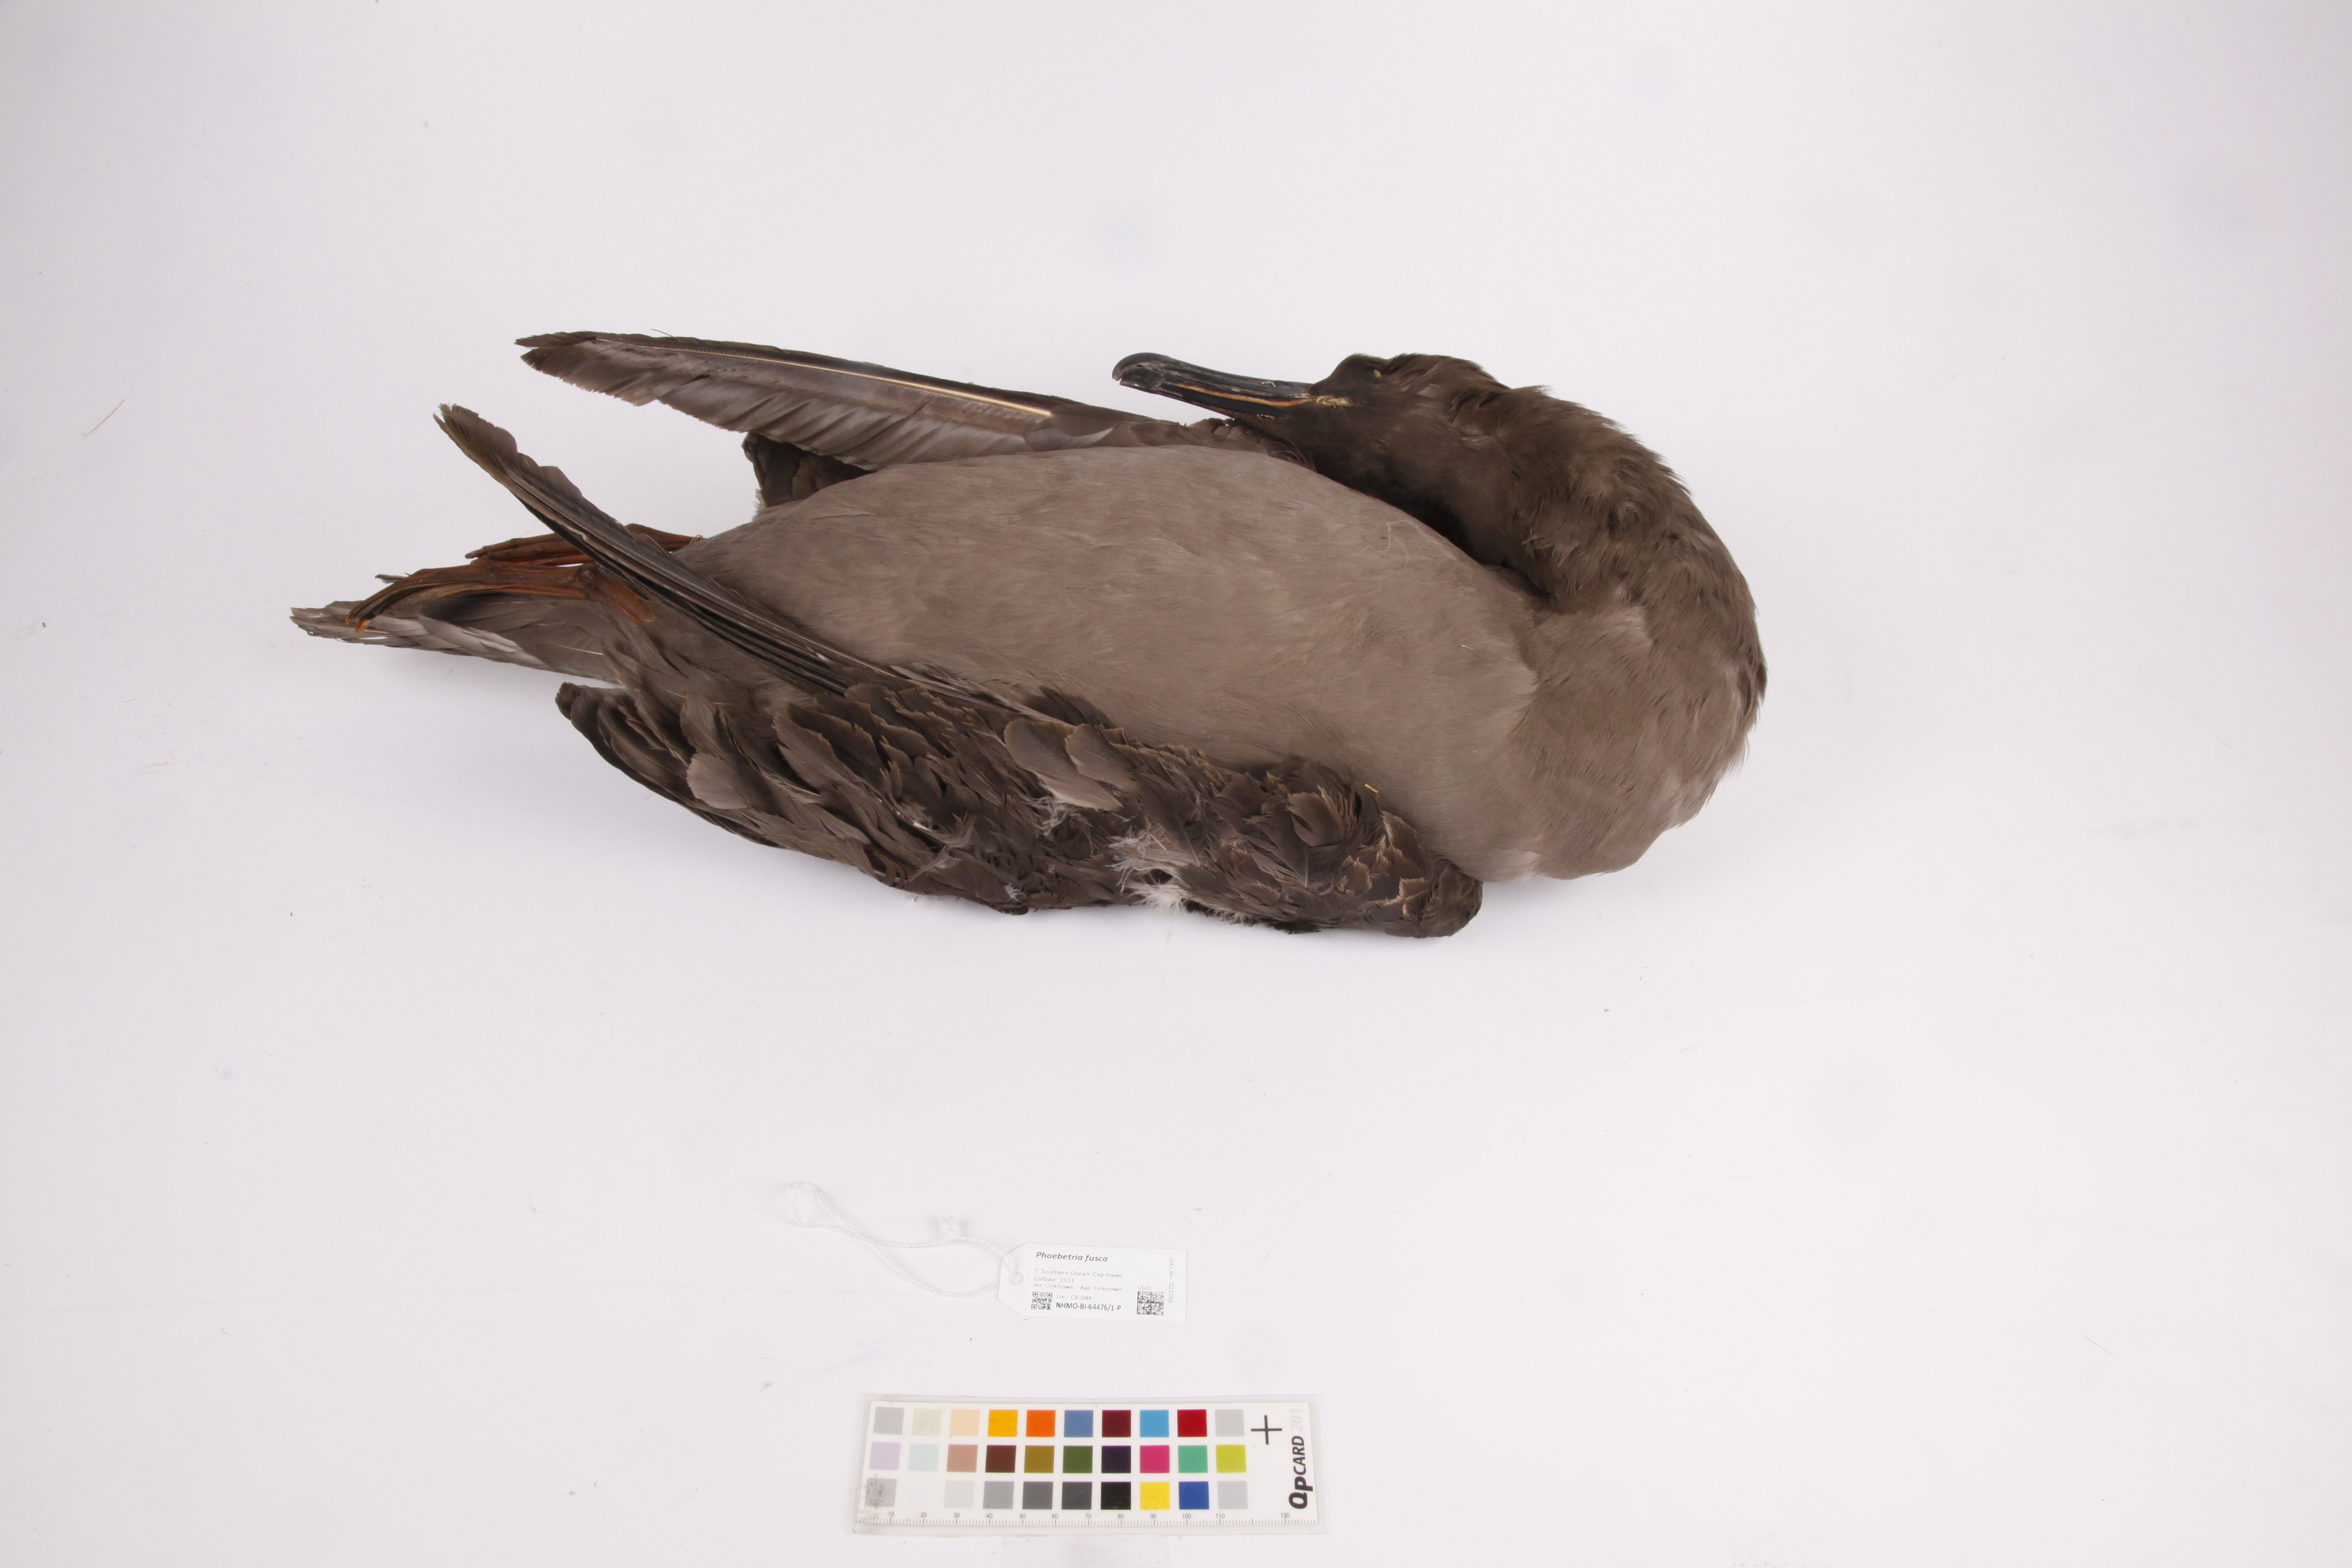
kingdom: Animalia
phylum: Chordata
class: Aves
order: Procellariiformes
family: Diomedeidae
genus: Phoebetria
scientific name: Phoebetria fusca
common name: Sooty albatross
